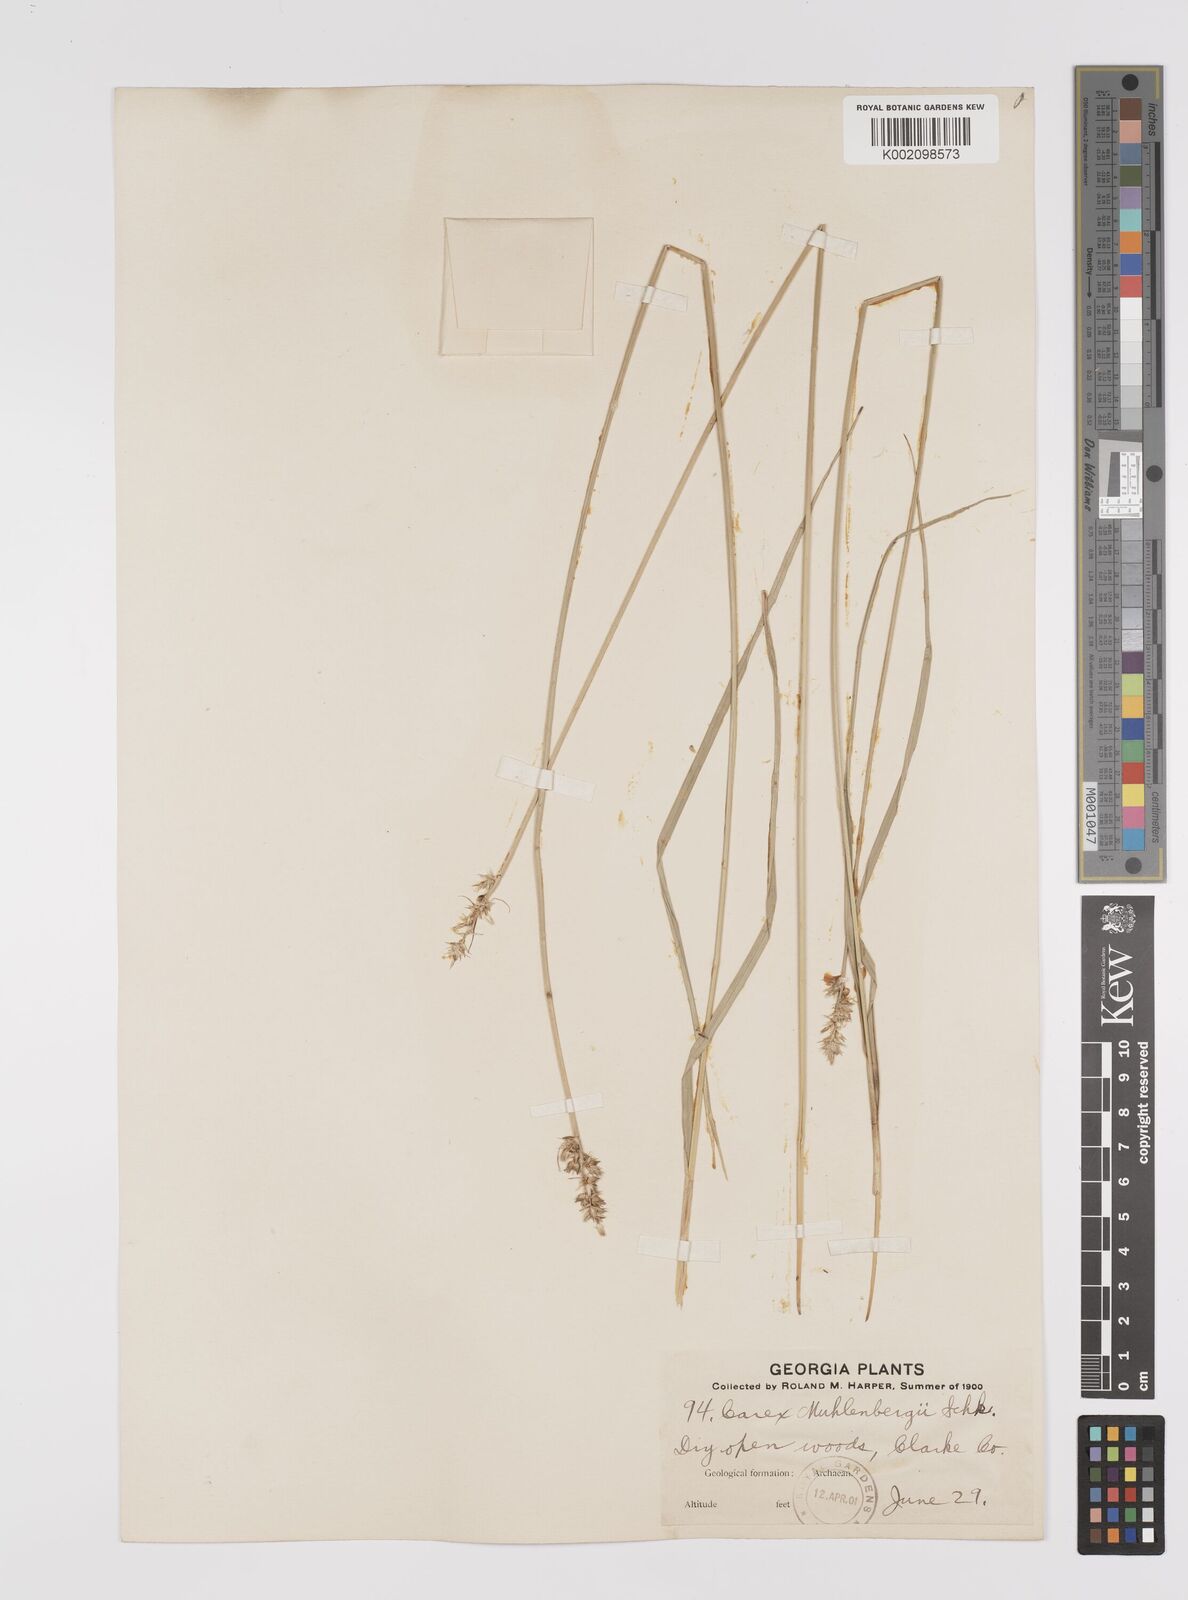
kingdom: Plantae
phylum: Tracheophyta
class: Liliopsida
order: Poales
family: Cyperaceae
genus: Carex
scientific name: Carex vulpinoidea
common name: American fox-sedge
